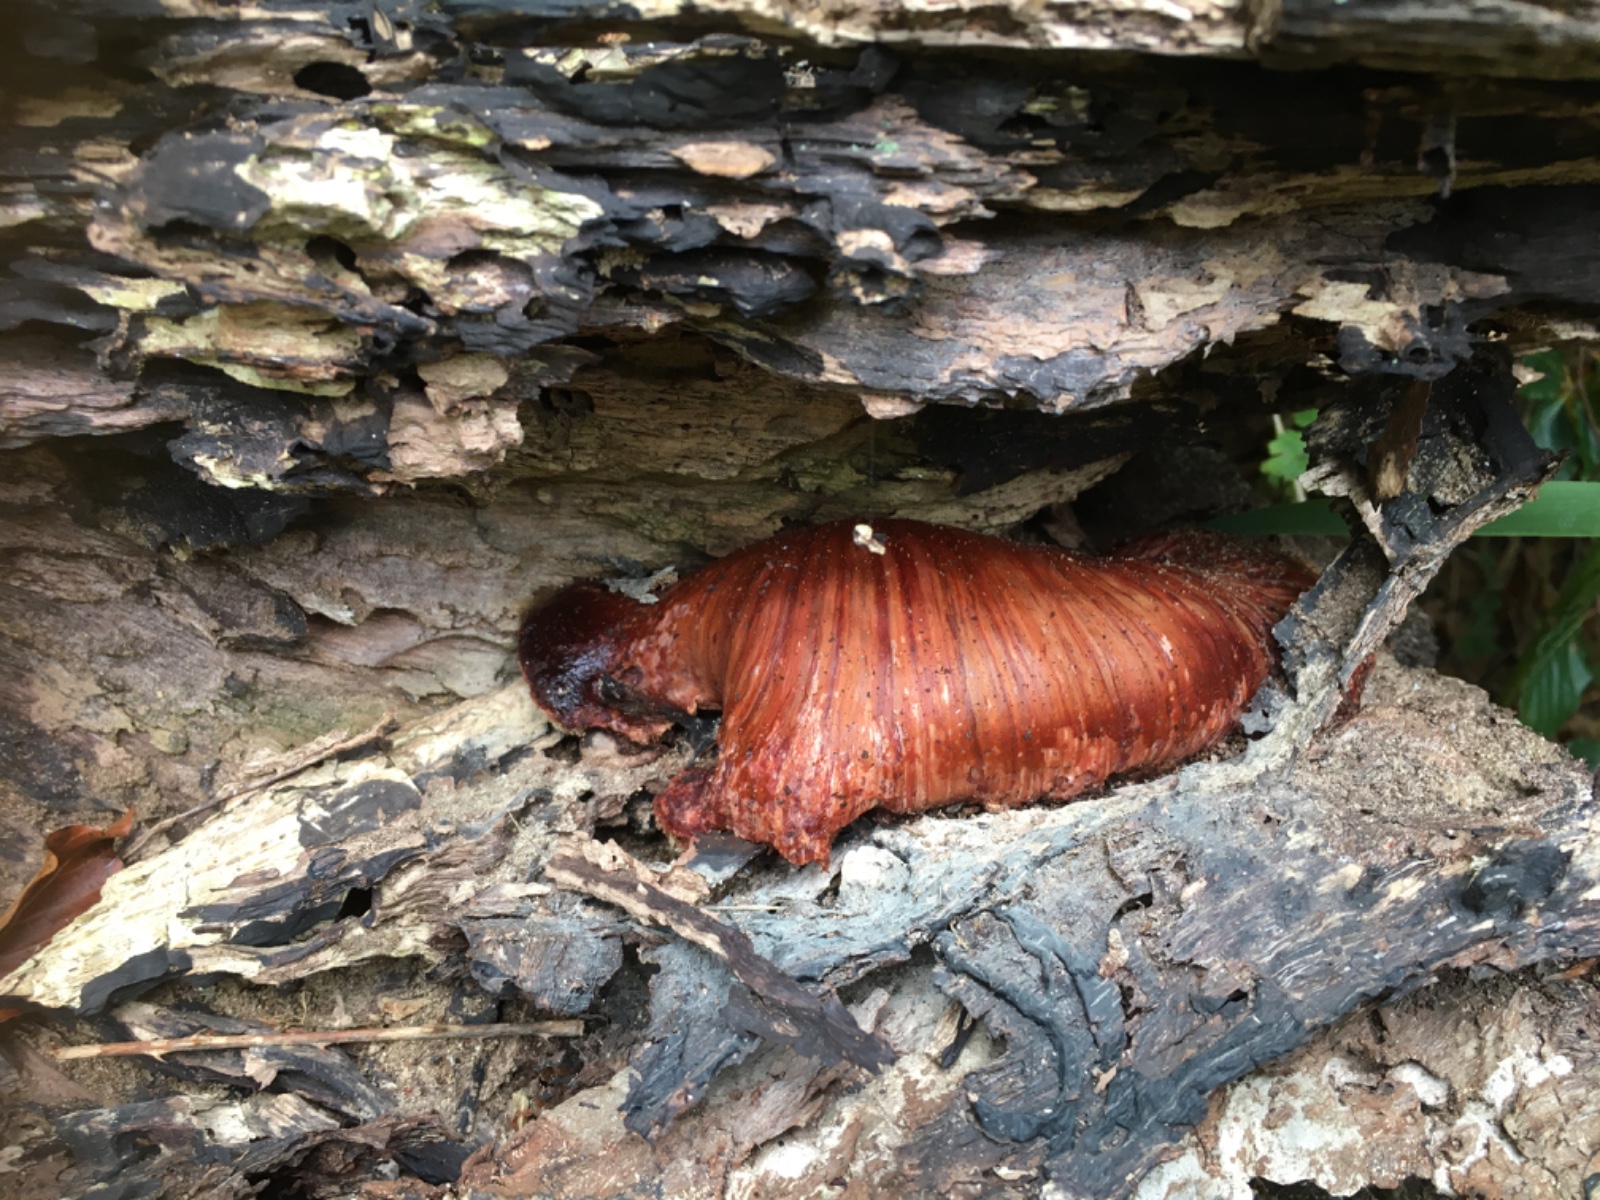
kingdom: Fungi
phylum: Basidiomycota
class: Agaricomycetes
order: Agaricales
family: Fistulinaceae
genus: Fistulina
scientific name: Fistulina hepatica
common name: oksetunge
